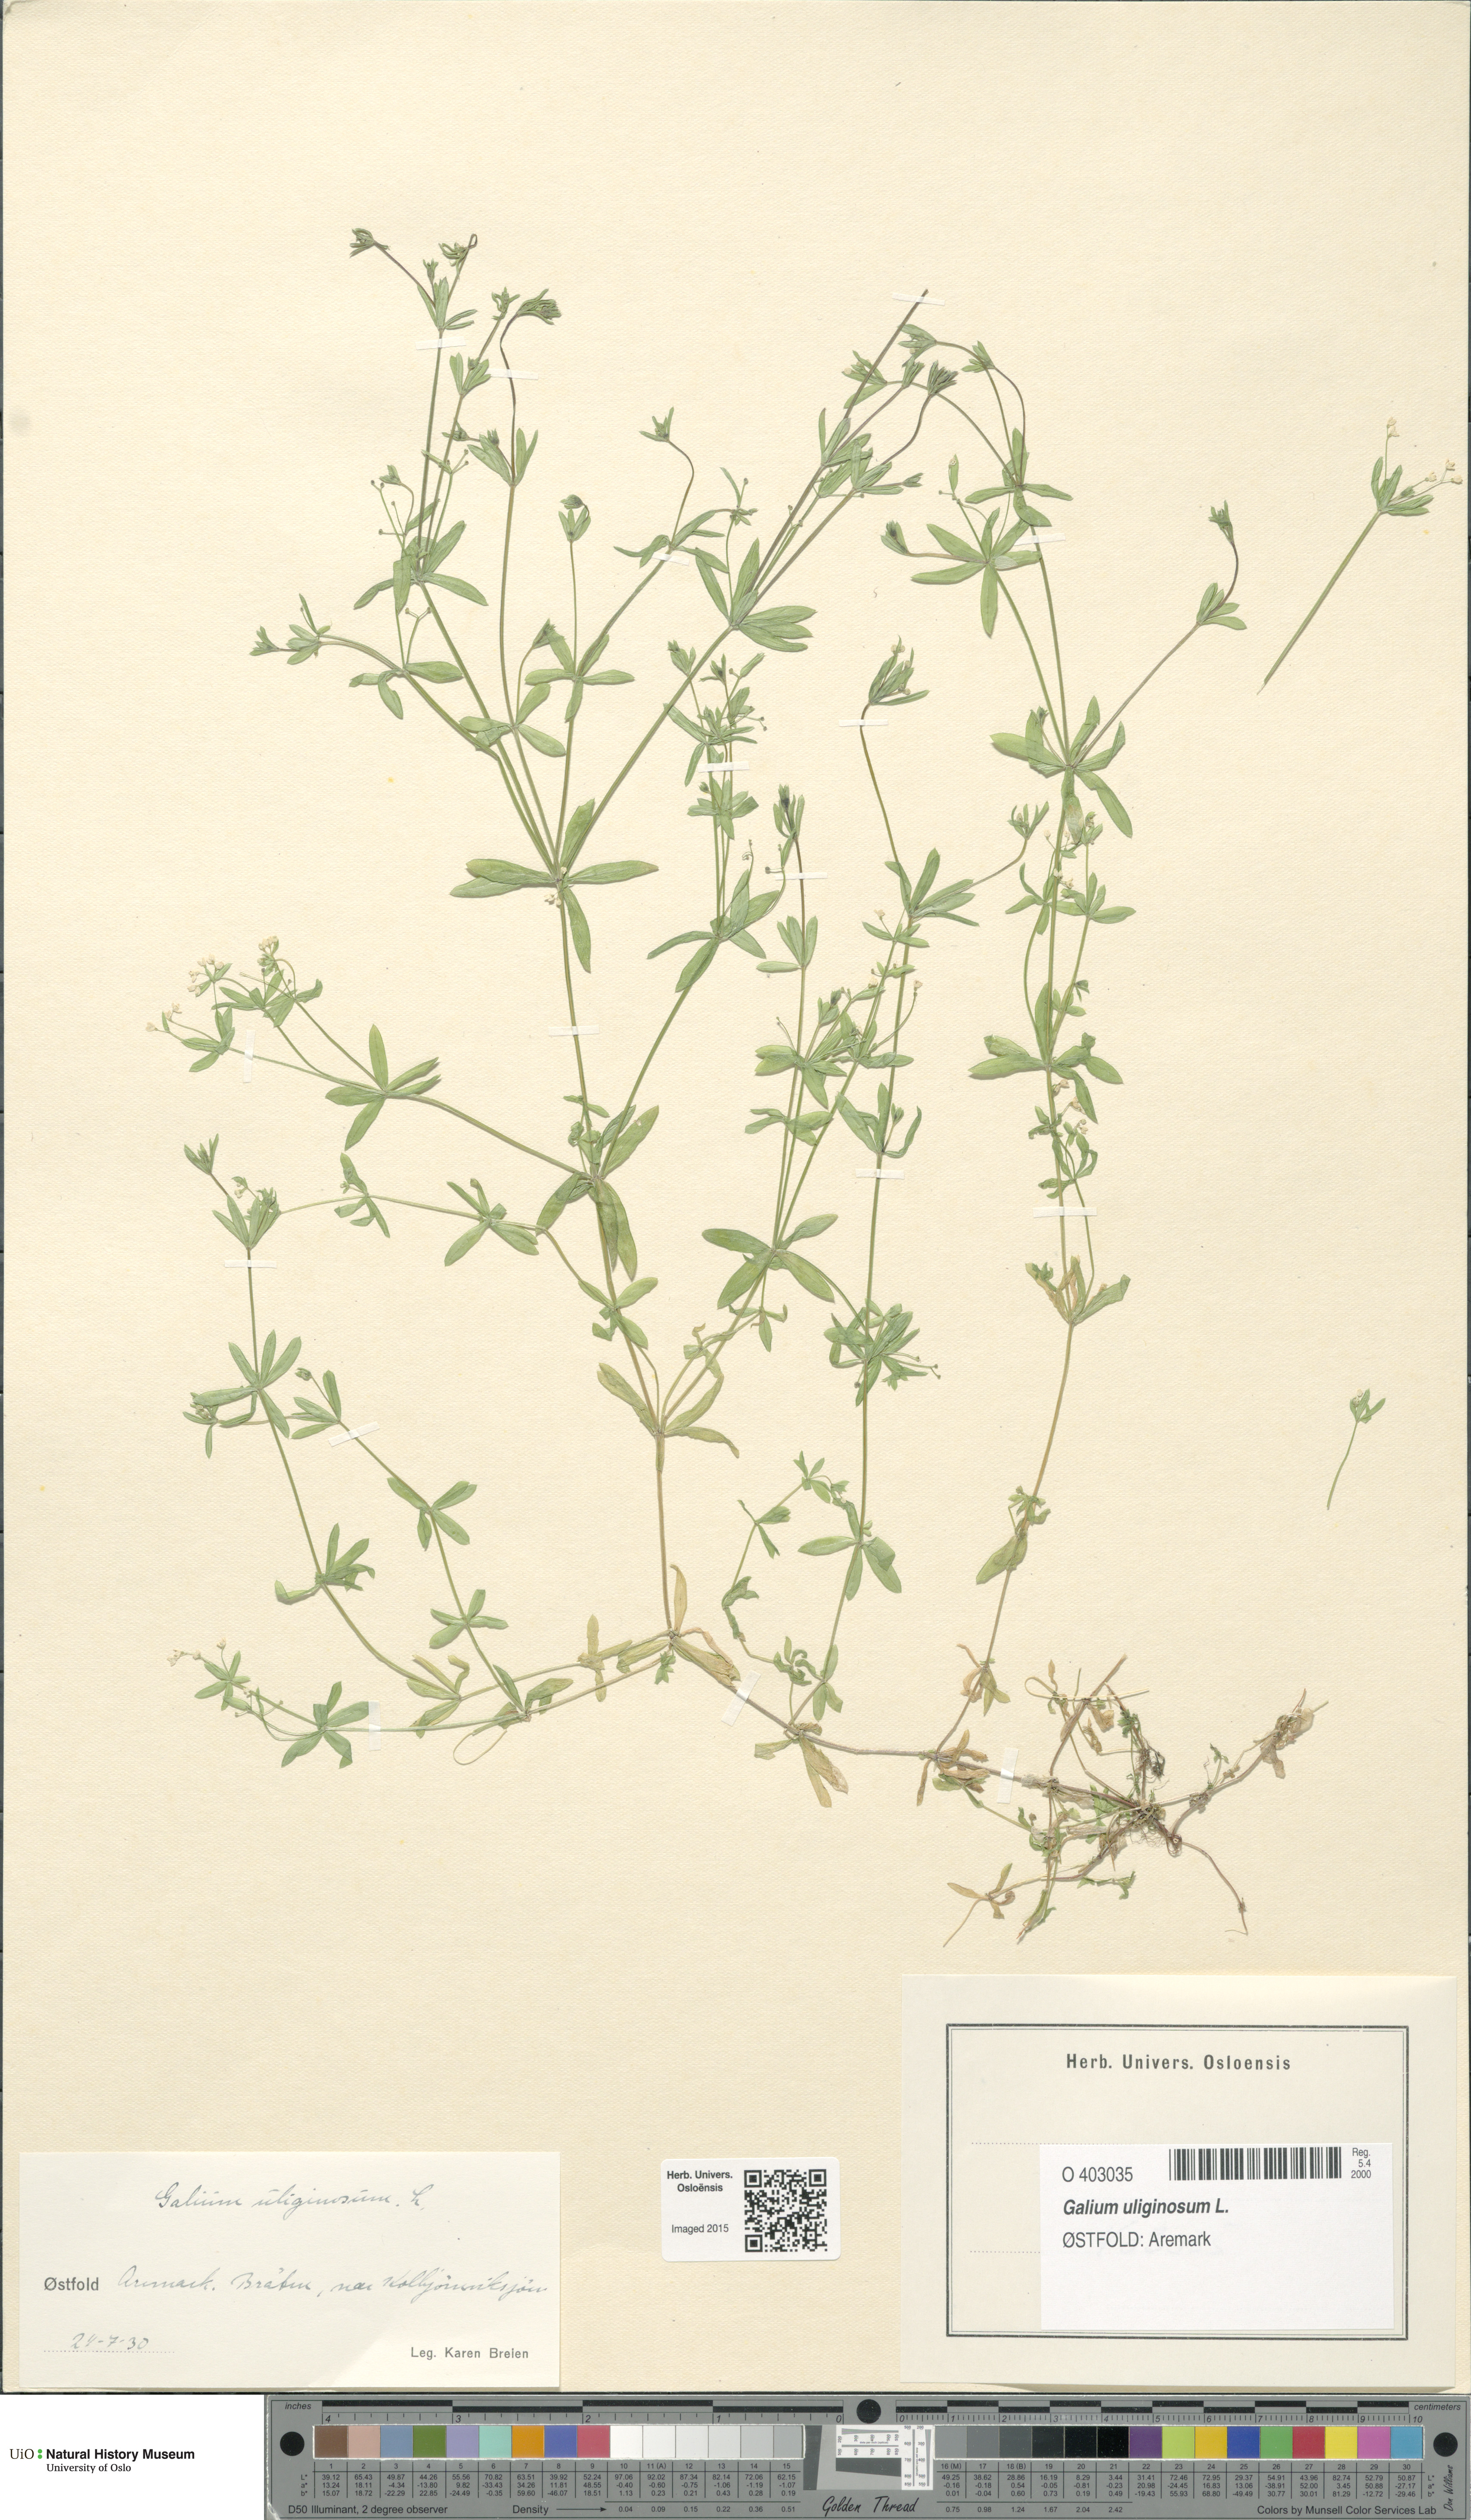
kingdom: Plantae
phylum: Tracheophyta
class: Magnoliopsida
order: Gentianales
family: Rubiaceae
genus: Galium
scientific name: Galium uliginosum
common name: Fen bedstraw
